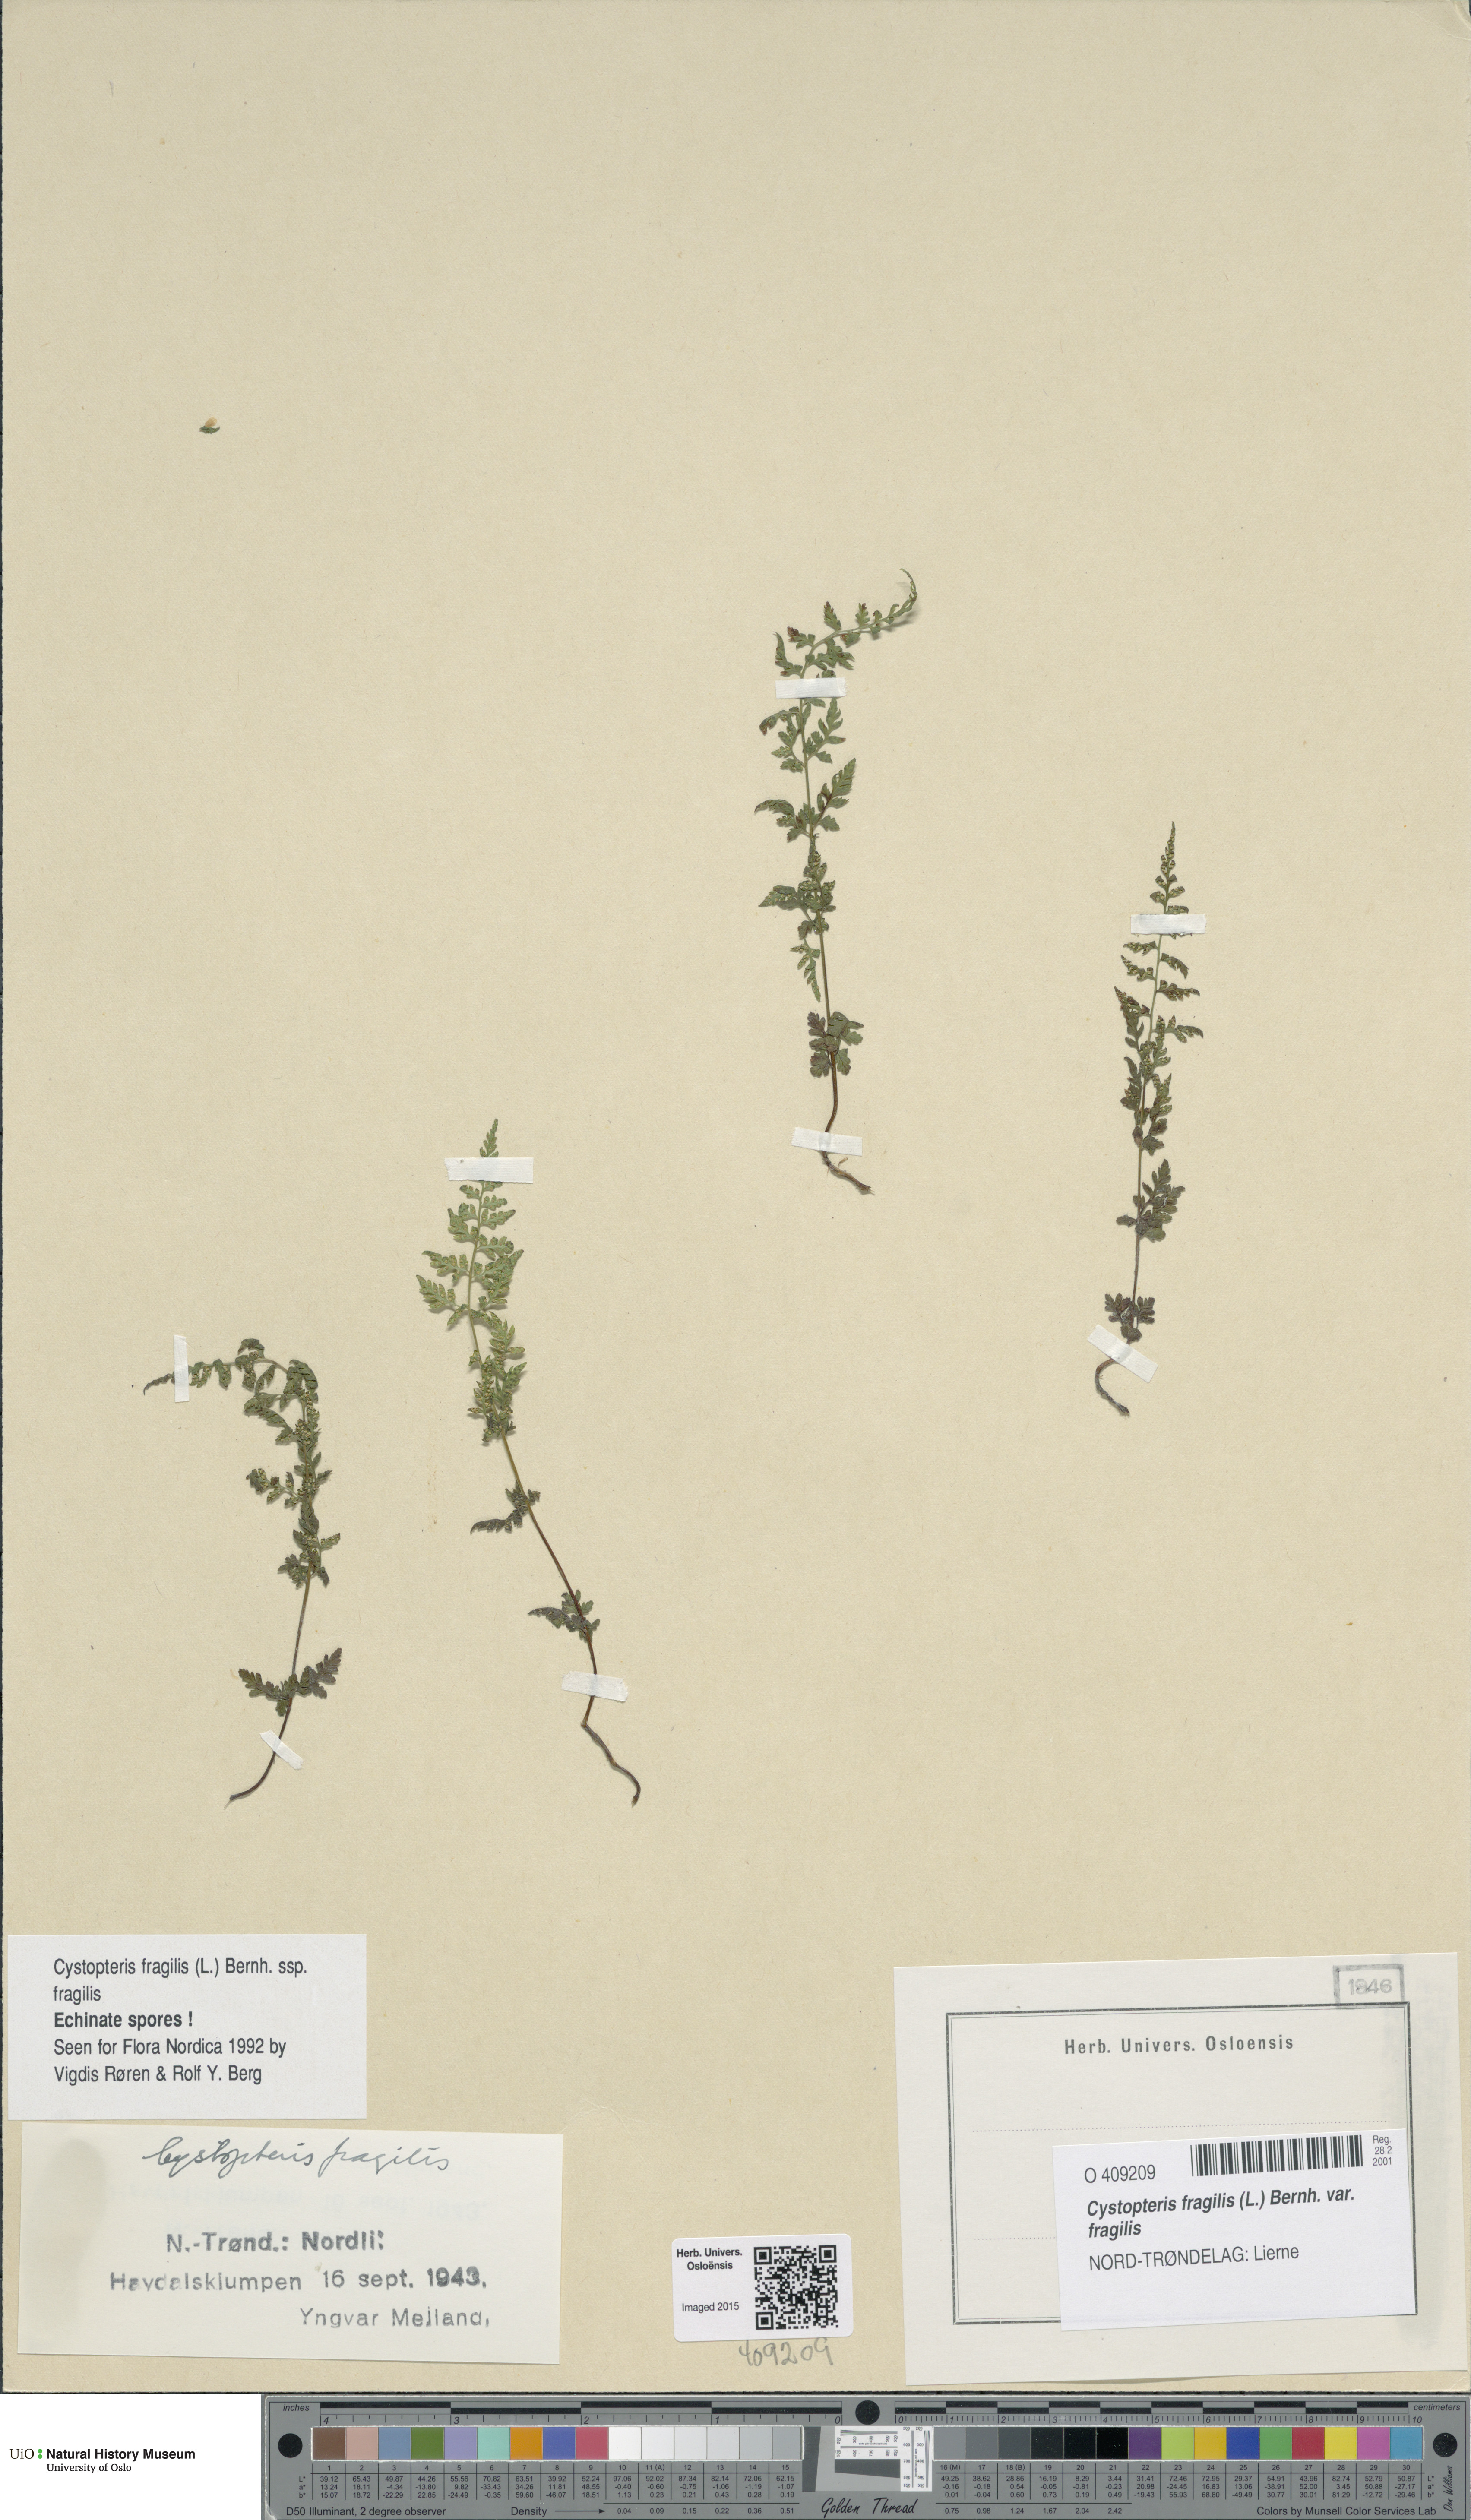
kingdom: Plantae
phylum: Tracheophyta
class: Polypodiopsida
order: Polypodiales
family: Cystopteridaceae
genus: Cystopteris
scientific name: Cystopteris fragilis
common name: Brittle bladder fern
